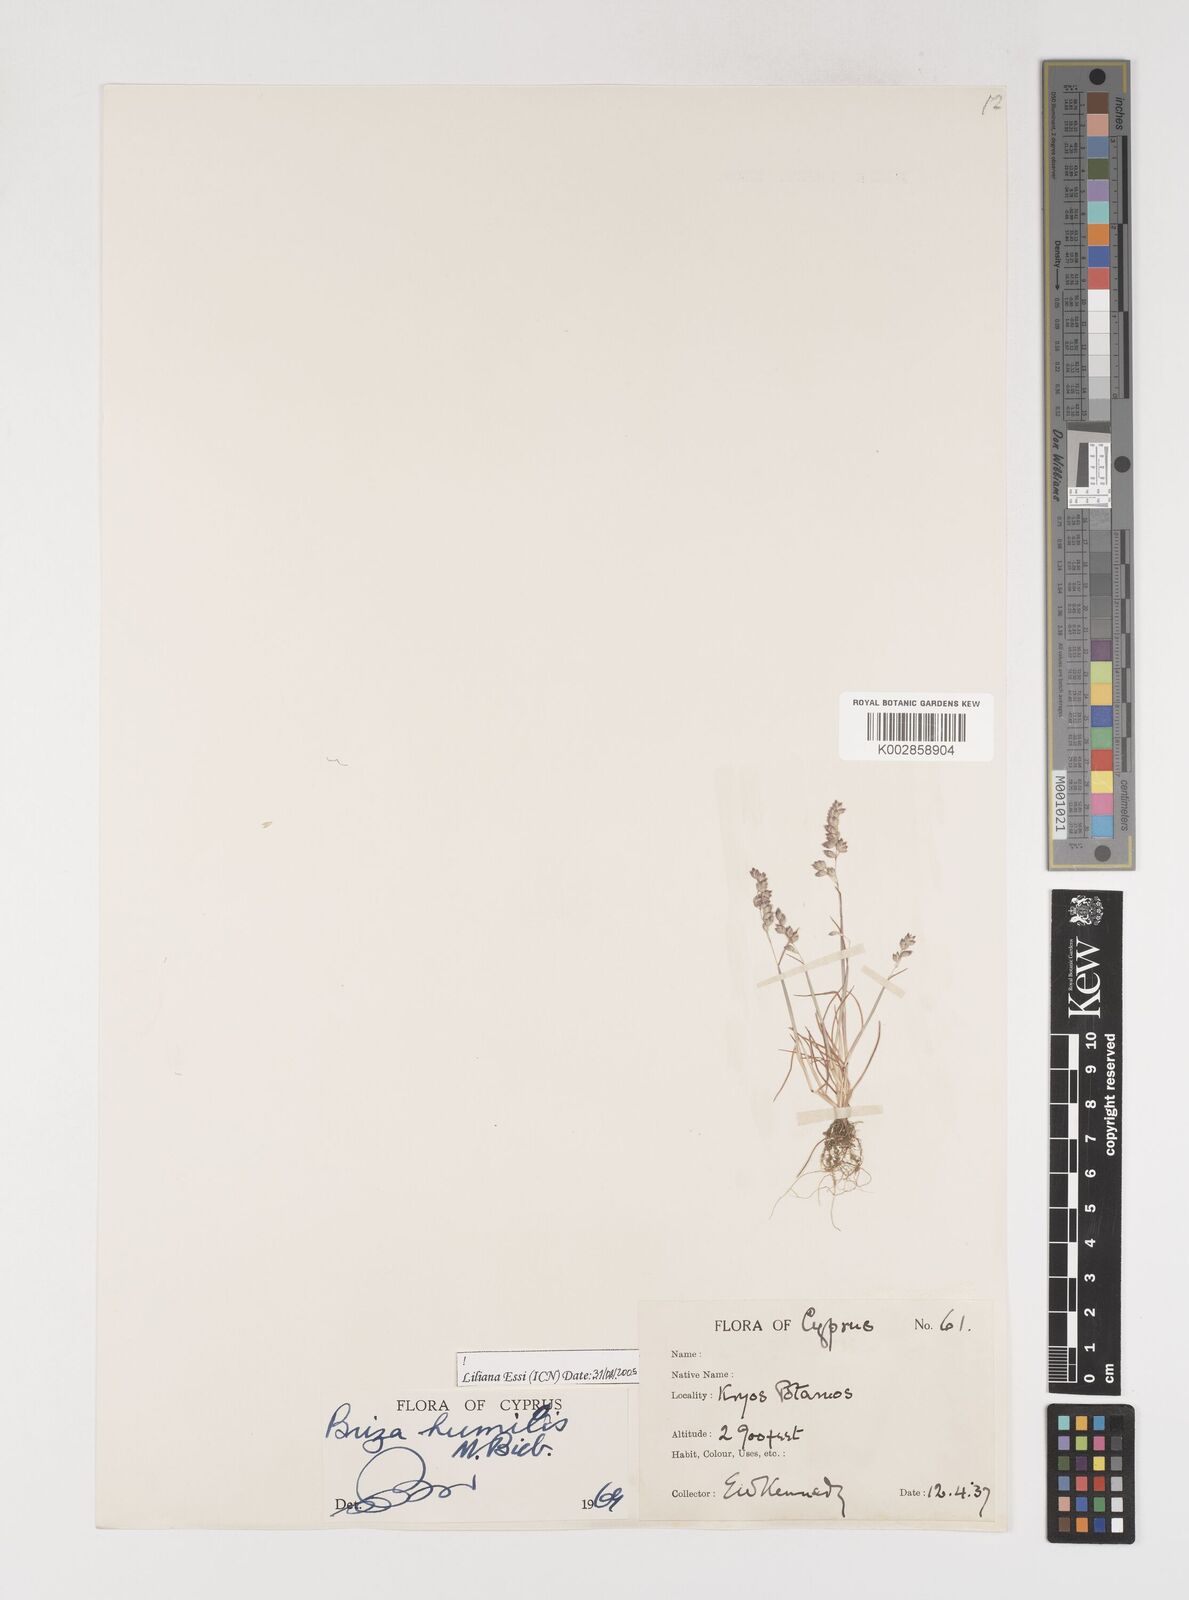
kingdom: Plantae
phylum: Tracheophyta
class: Liliopsida
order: Poales
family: Poaceae
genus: Briza
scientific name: Briza humilis
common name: Spiked quaking grass
